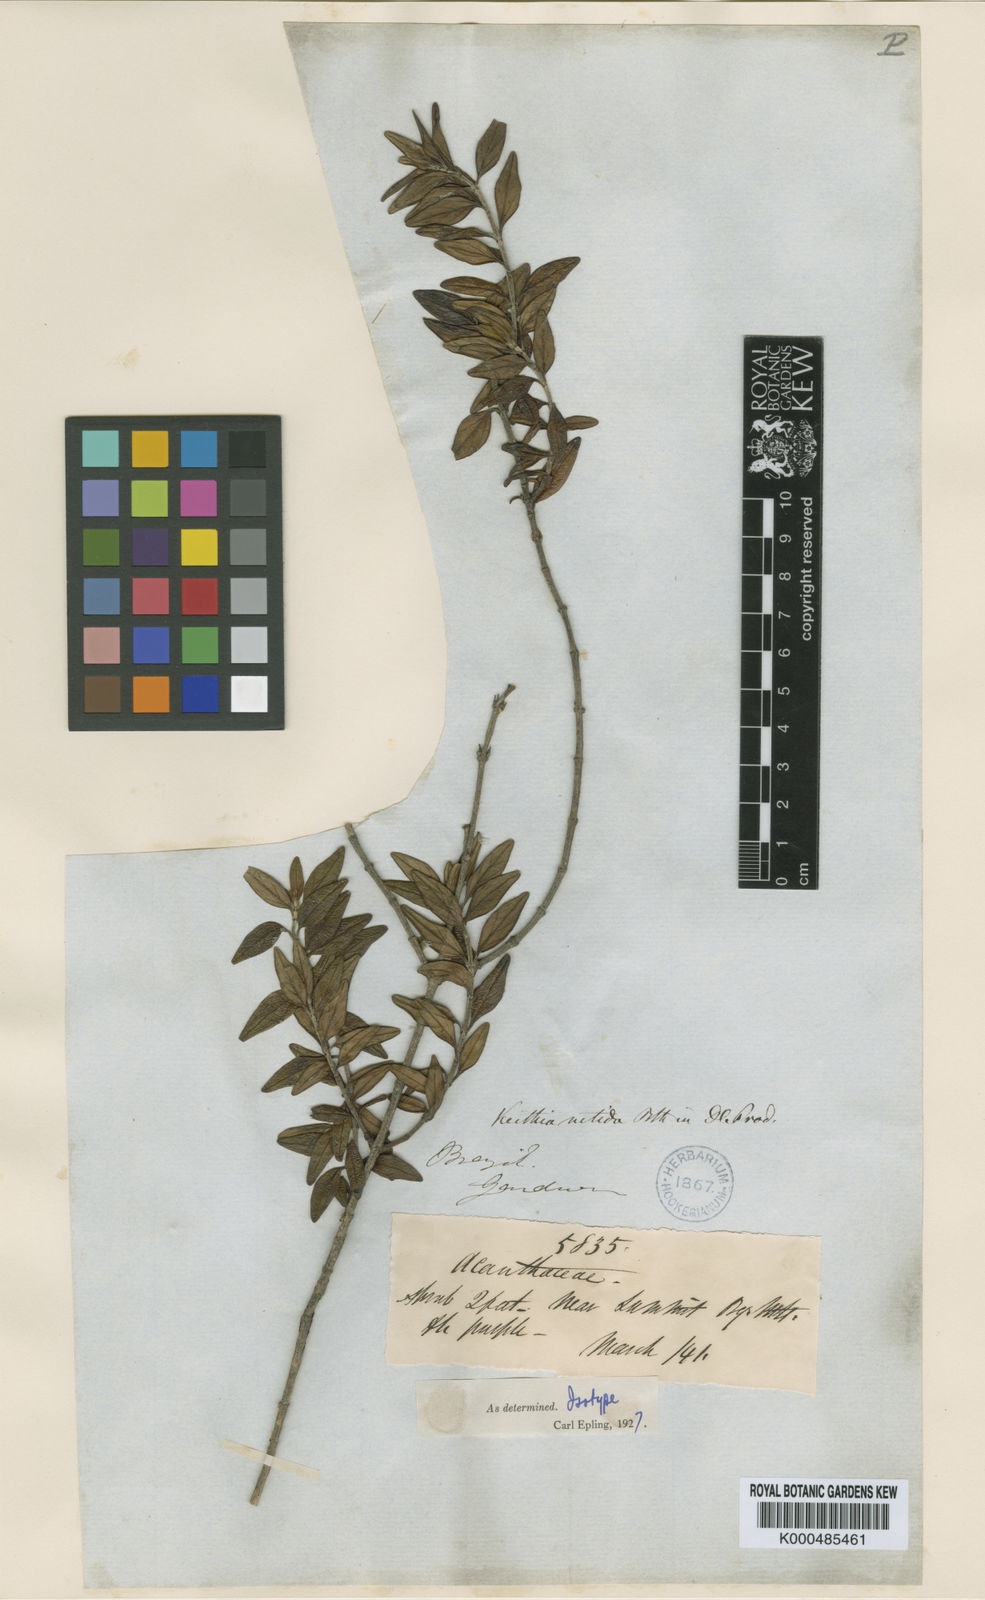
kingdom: Plantae
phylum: Tracheophyta
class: Magnoliopsida
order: Lamiales
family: Lamiaceae
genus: Hesperozygis
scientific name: Hesperozygis nitida
